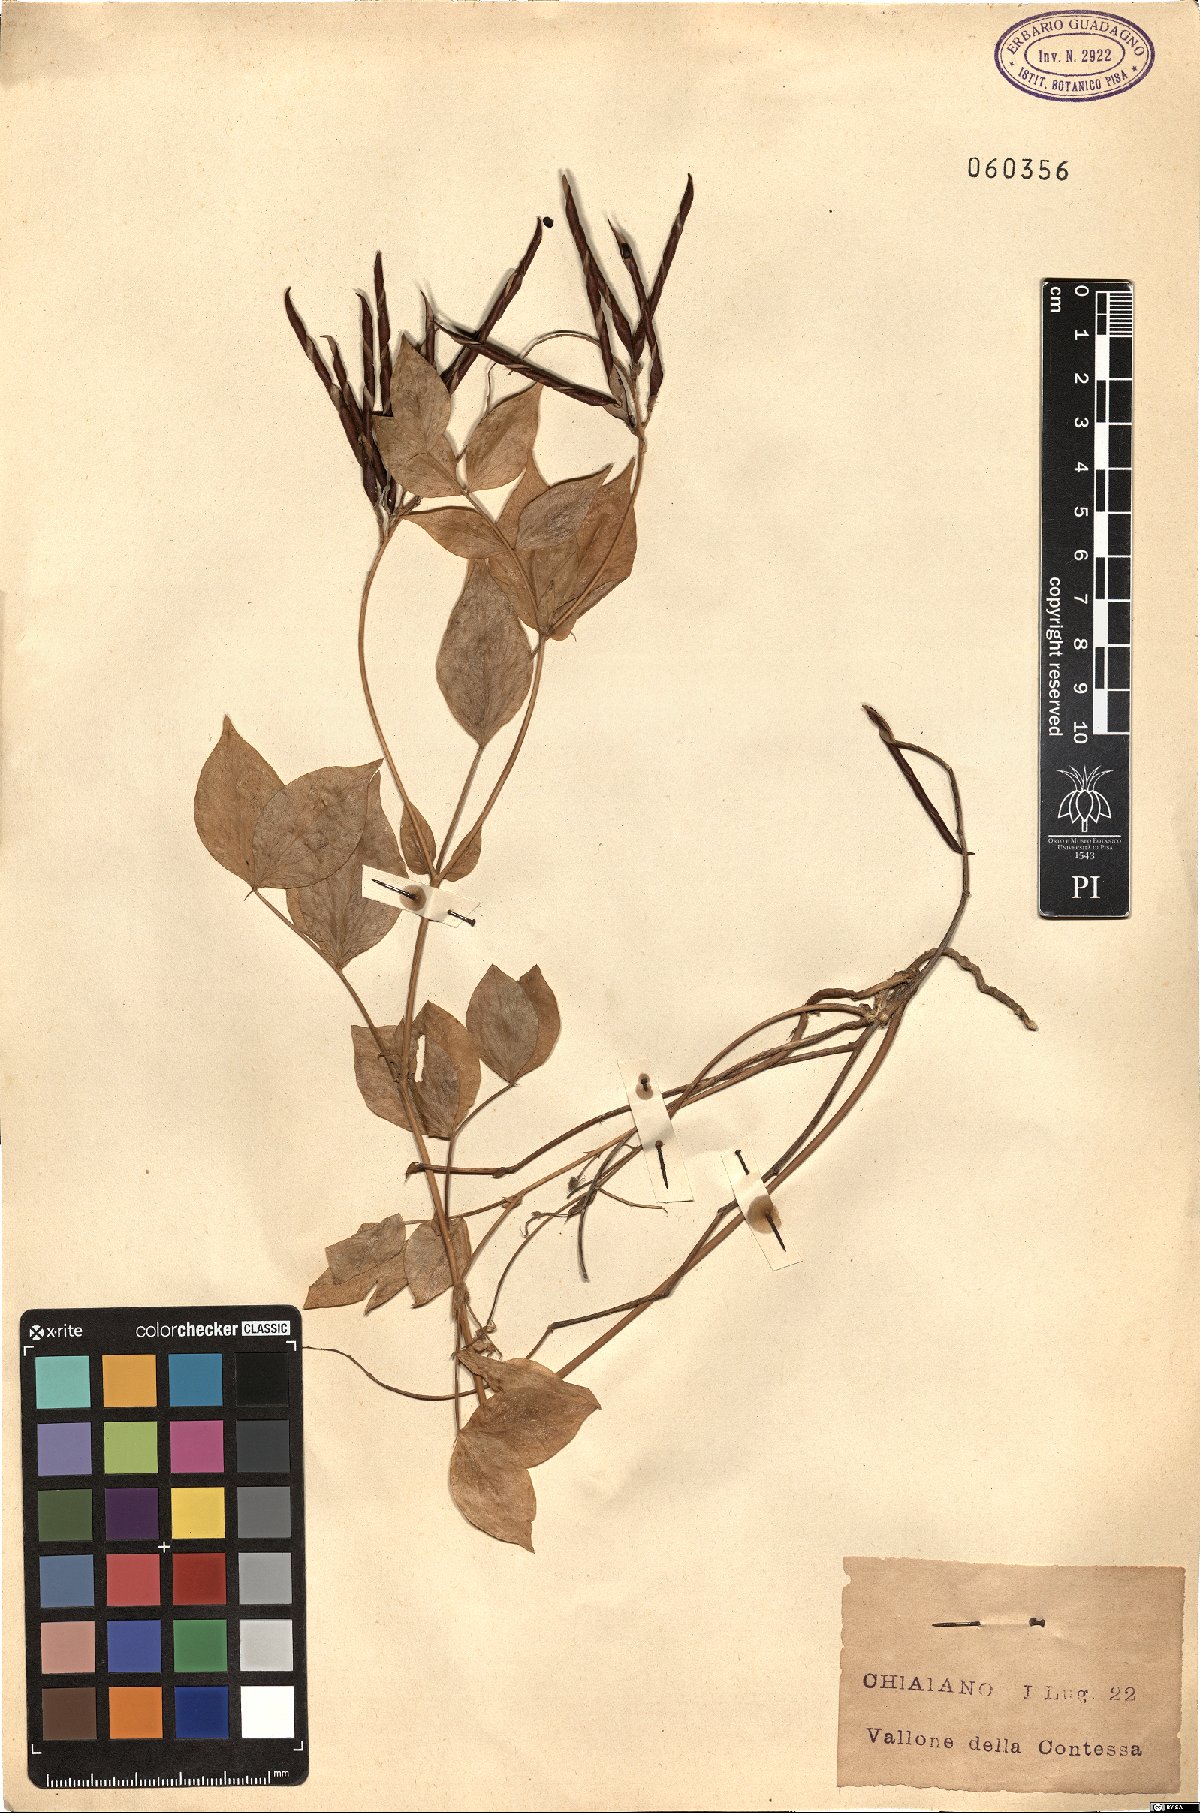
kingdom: Plantae
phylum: Tracheophyta
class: Magnoliopsida
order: Fabales
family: Fabaceae
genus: Lathyrus
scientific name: Lathyrus vernus
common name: Spring pea
